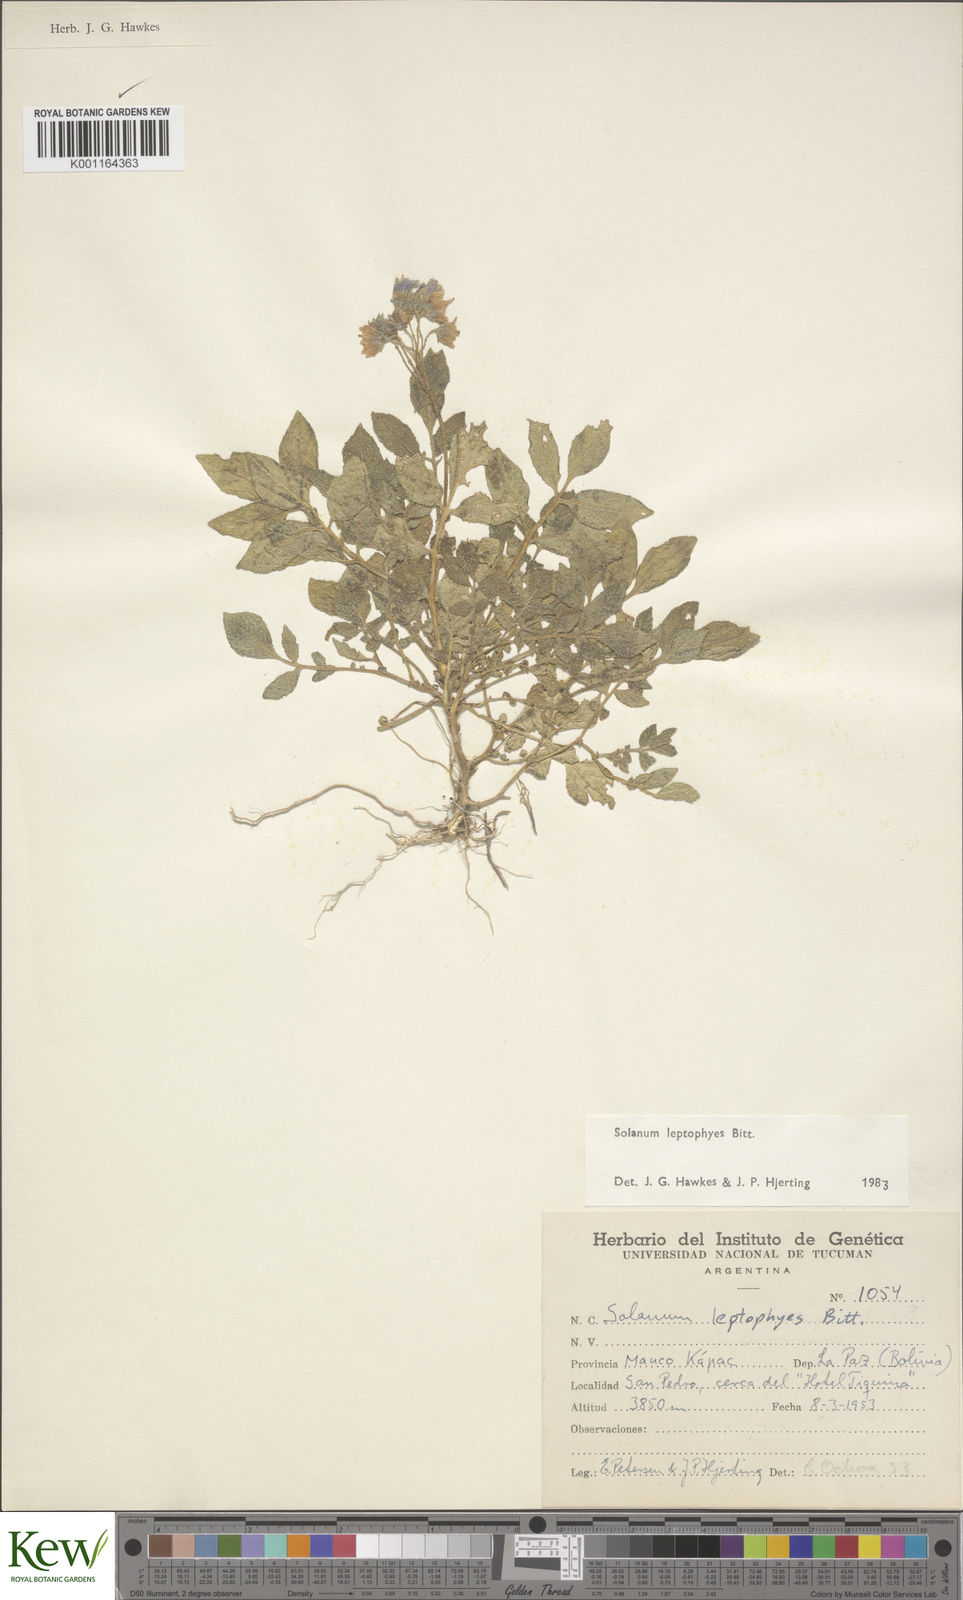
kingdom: Plantae
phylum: Tracheophyta
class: Magnoliopsida
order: Solanales
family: Solanaceae
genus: Solanum
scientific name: Solanum brevicaule
